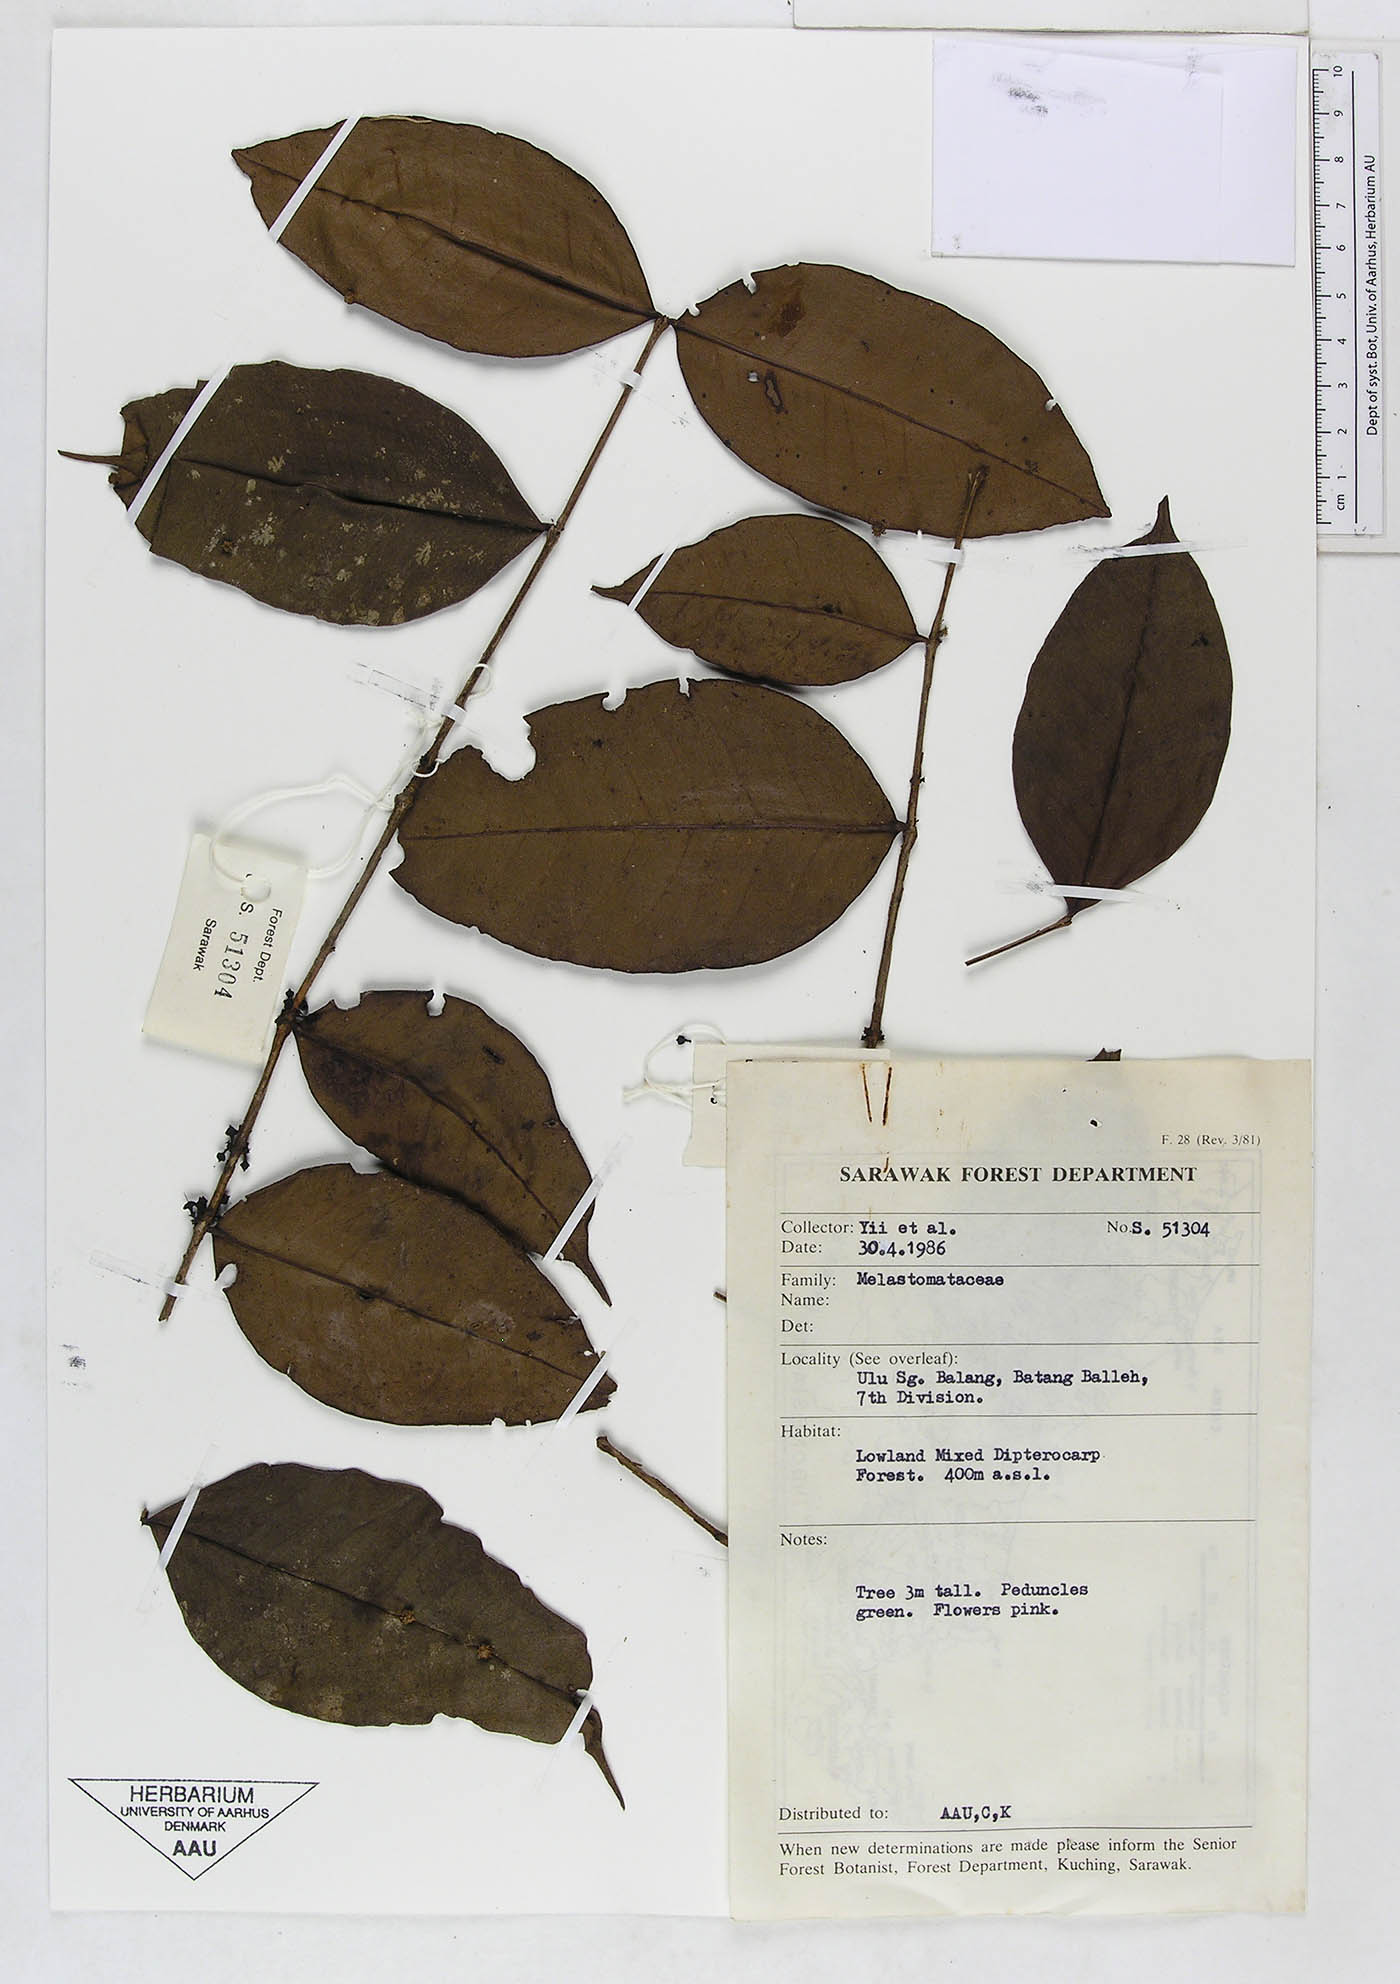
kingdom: Plantae
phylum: Tracheophyta
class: Magnoliopsida
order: Myrtales
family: Melastomataceae
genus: Memecylon
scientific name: Memecylon
